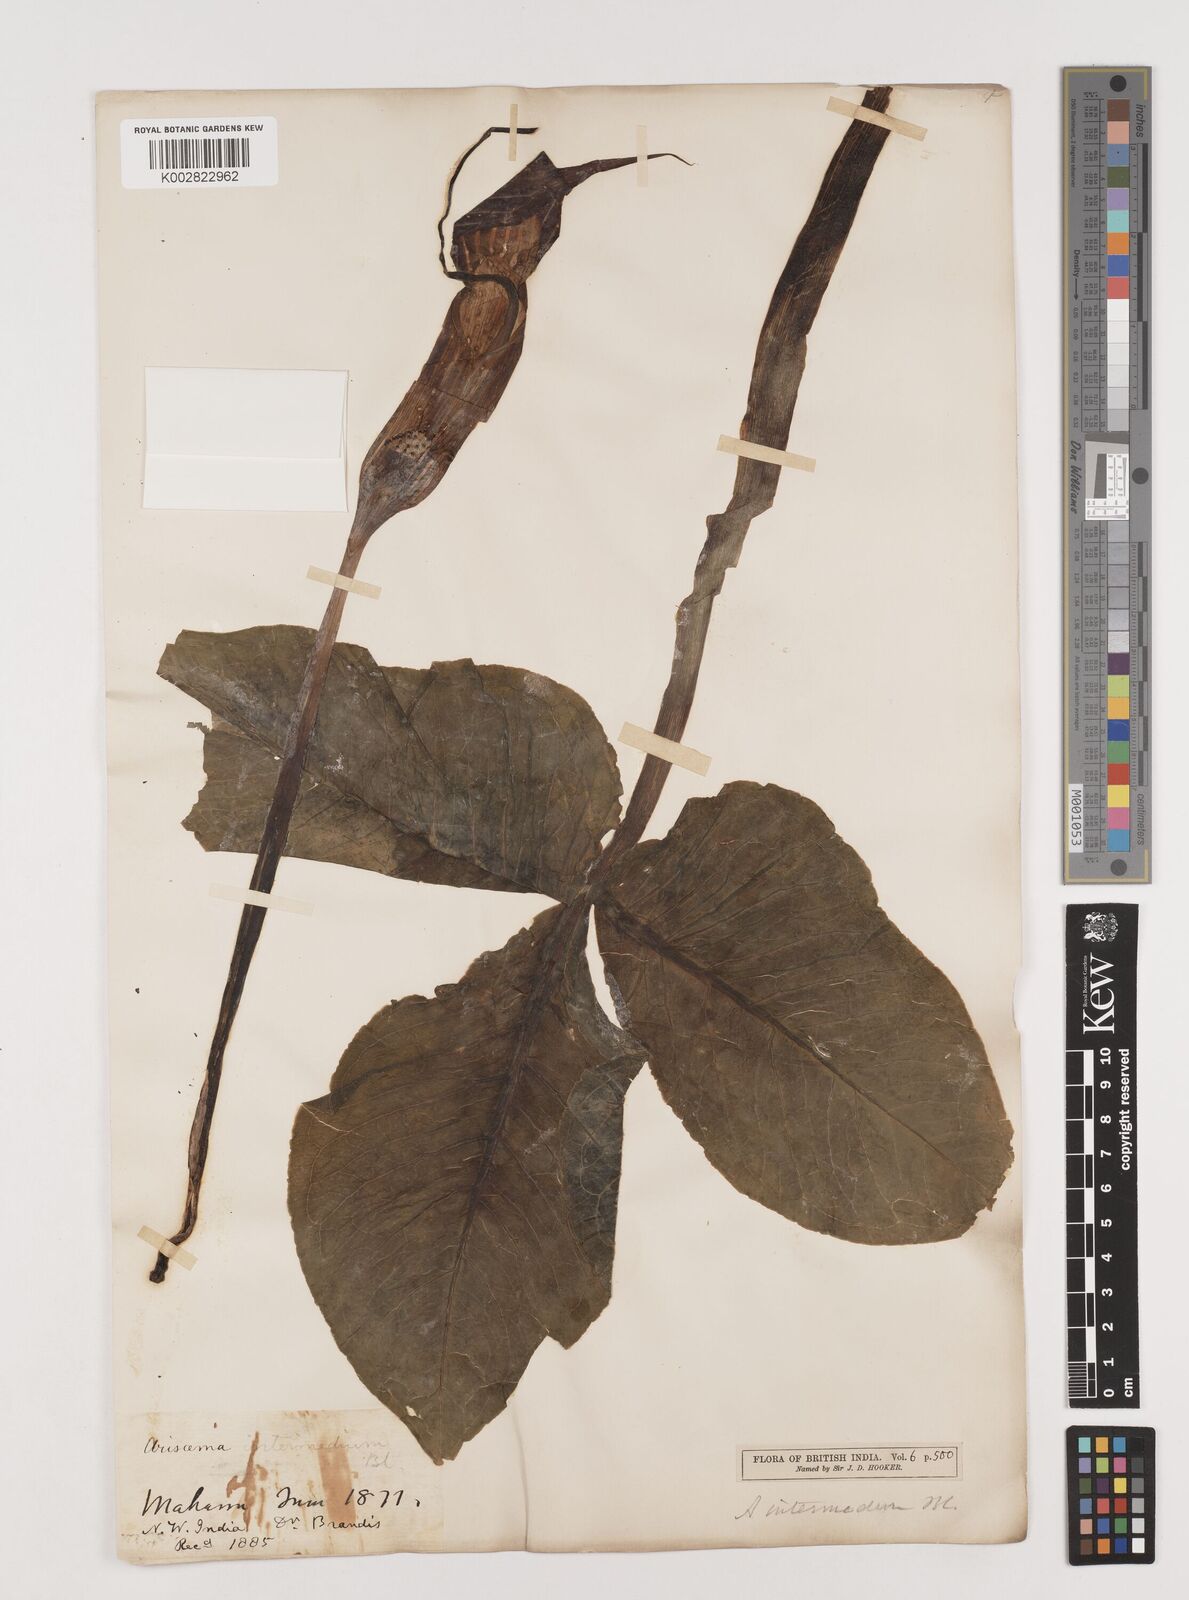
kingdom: Plantae
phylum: Tracheophyta
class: Liliopsida
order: Alismatales
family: Araceae
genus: Arisaema
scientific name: Arisaema intermedium
